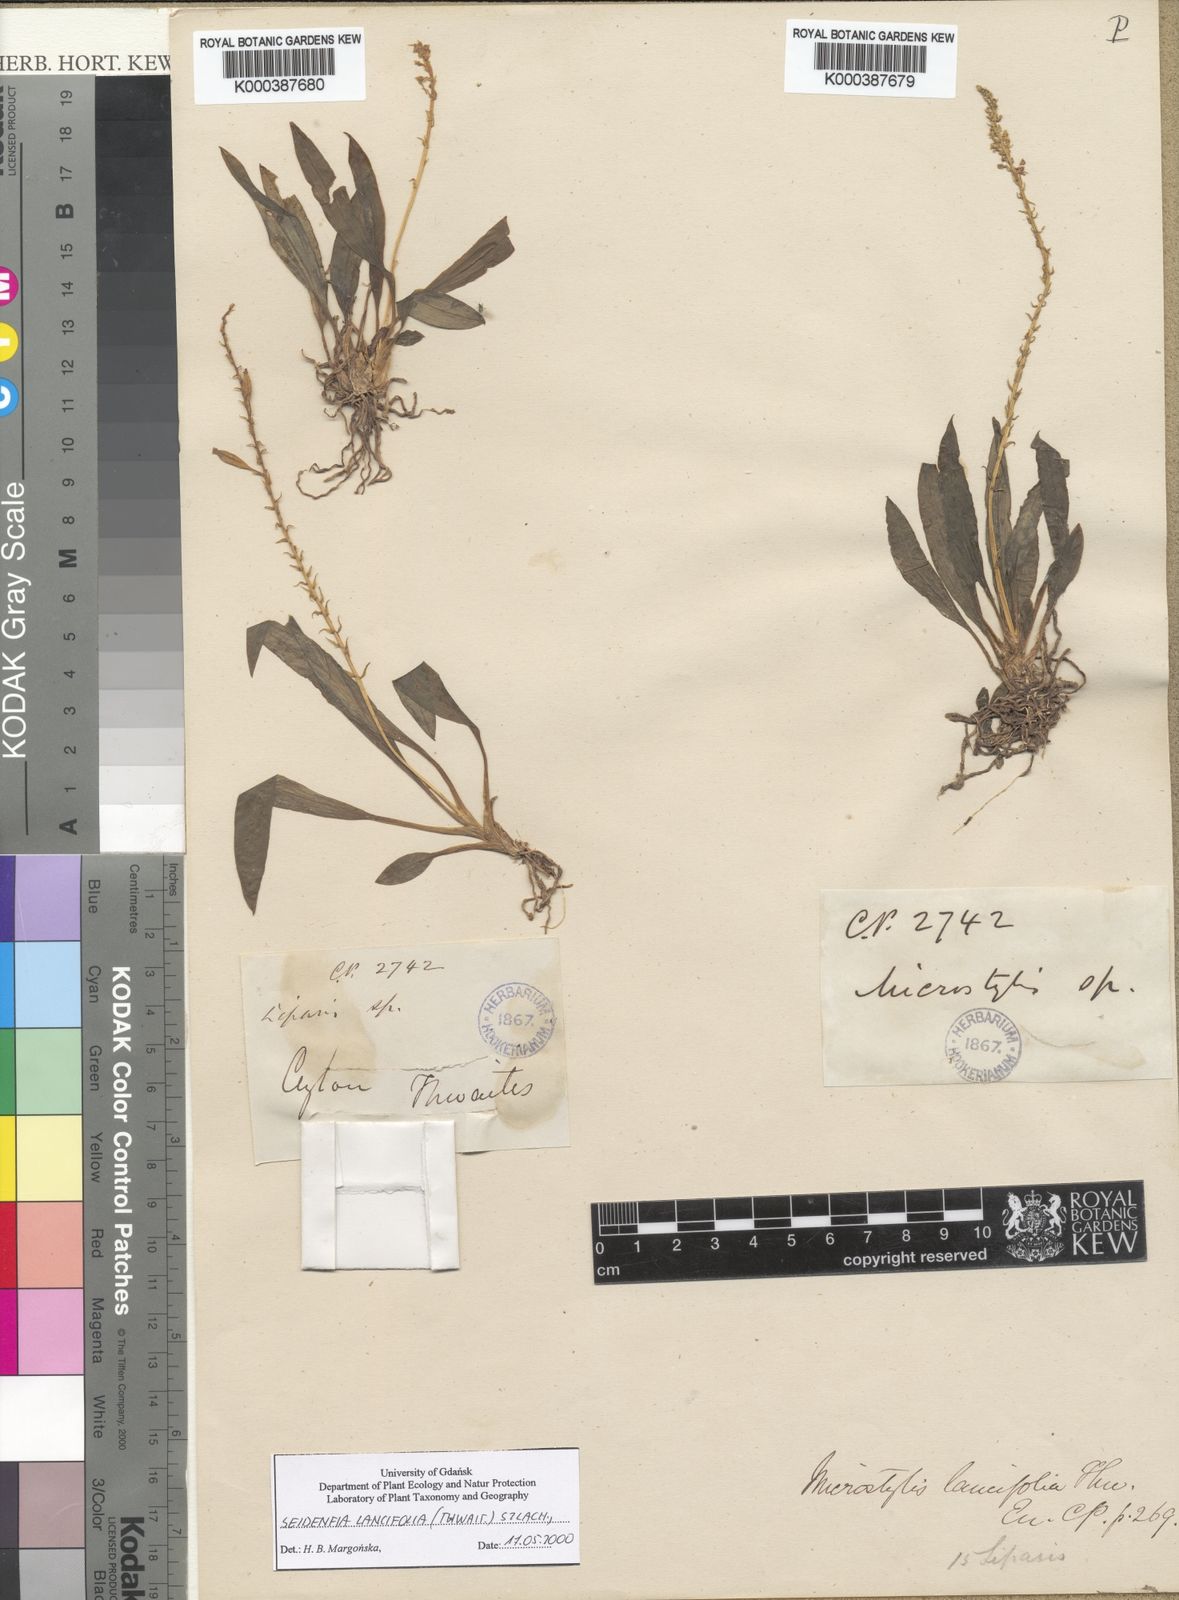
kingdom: Plantae
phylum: Tracheophyta
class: Liliopsida
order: Asparagales
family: Orchidaceae
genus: Crepidium
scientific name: Crepidium
